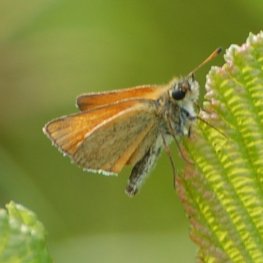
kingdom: Animalia
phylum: Arthropoda
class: Insecta
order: Lepidoptera
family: Hesperiidae
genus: Thymelicus
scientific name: Thymelicus lineola
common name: European Skipper
